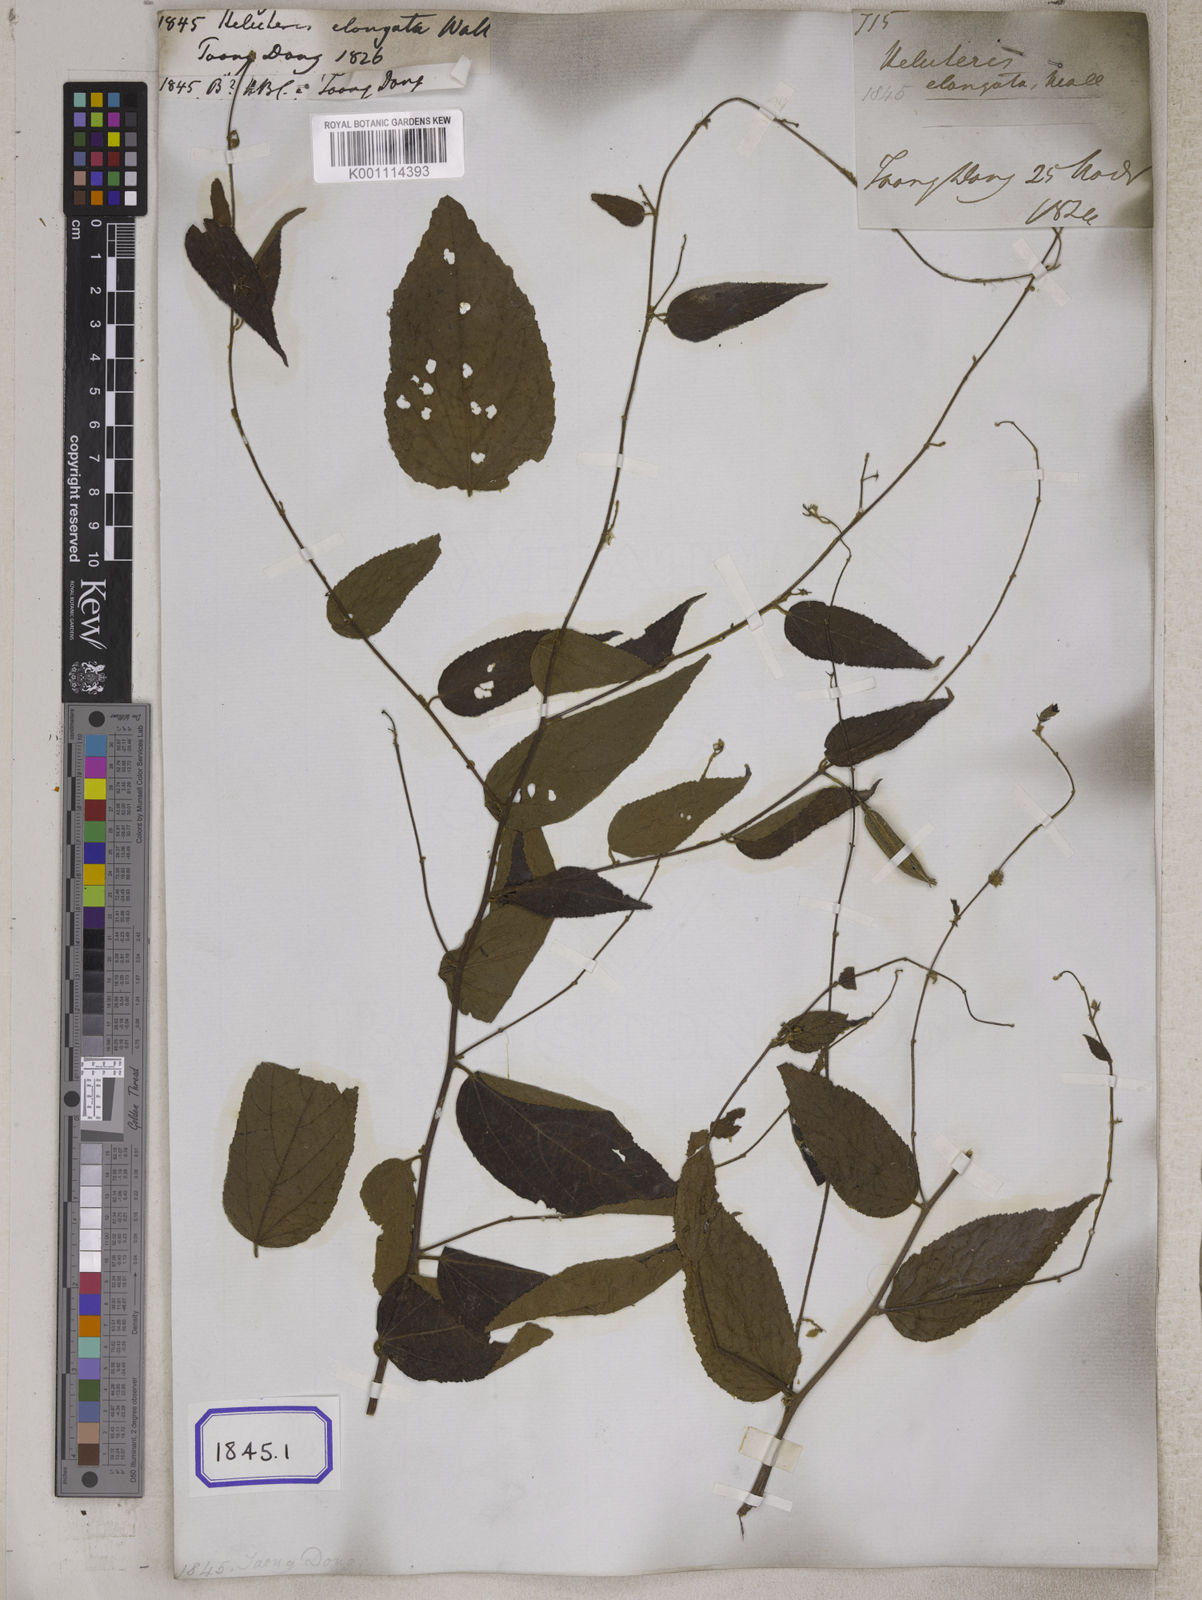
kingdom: Plantae
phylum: Tracheophyta
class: Magnoliopsida
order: Malvales
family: Malvaceae
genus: Helicteres
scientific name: Helicteres
